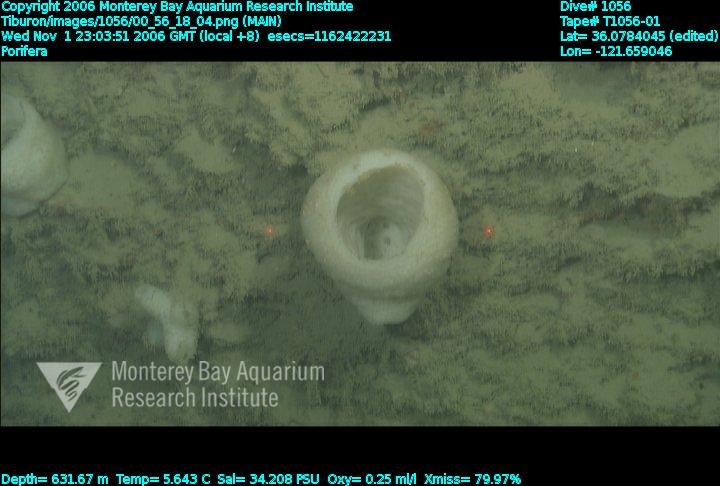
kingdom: Animalia
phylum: Porifera
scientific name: Porifera
